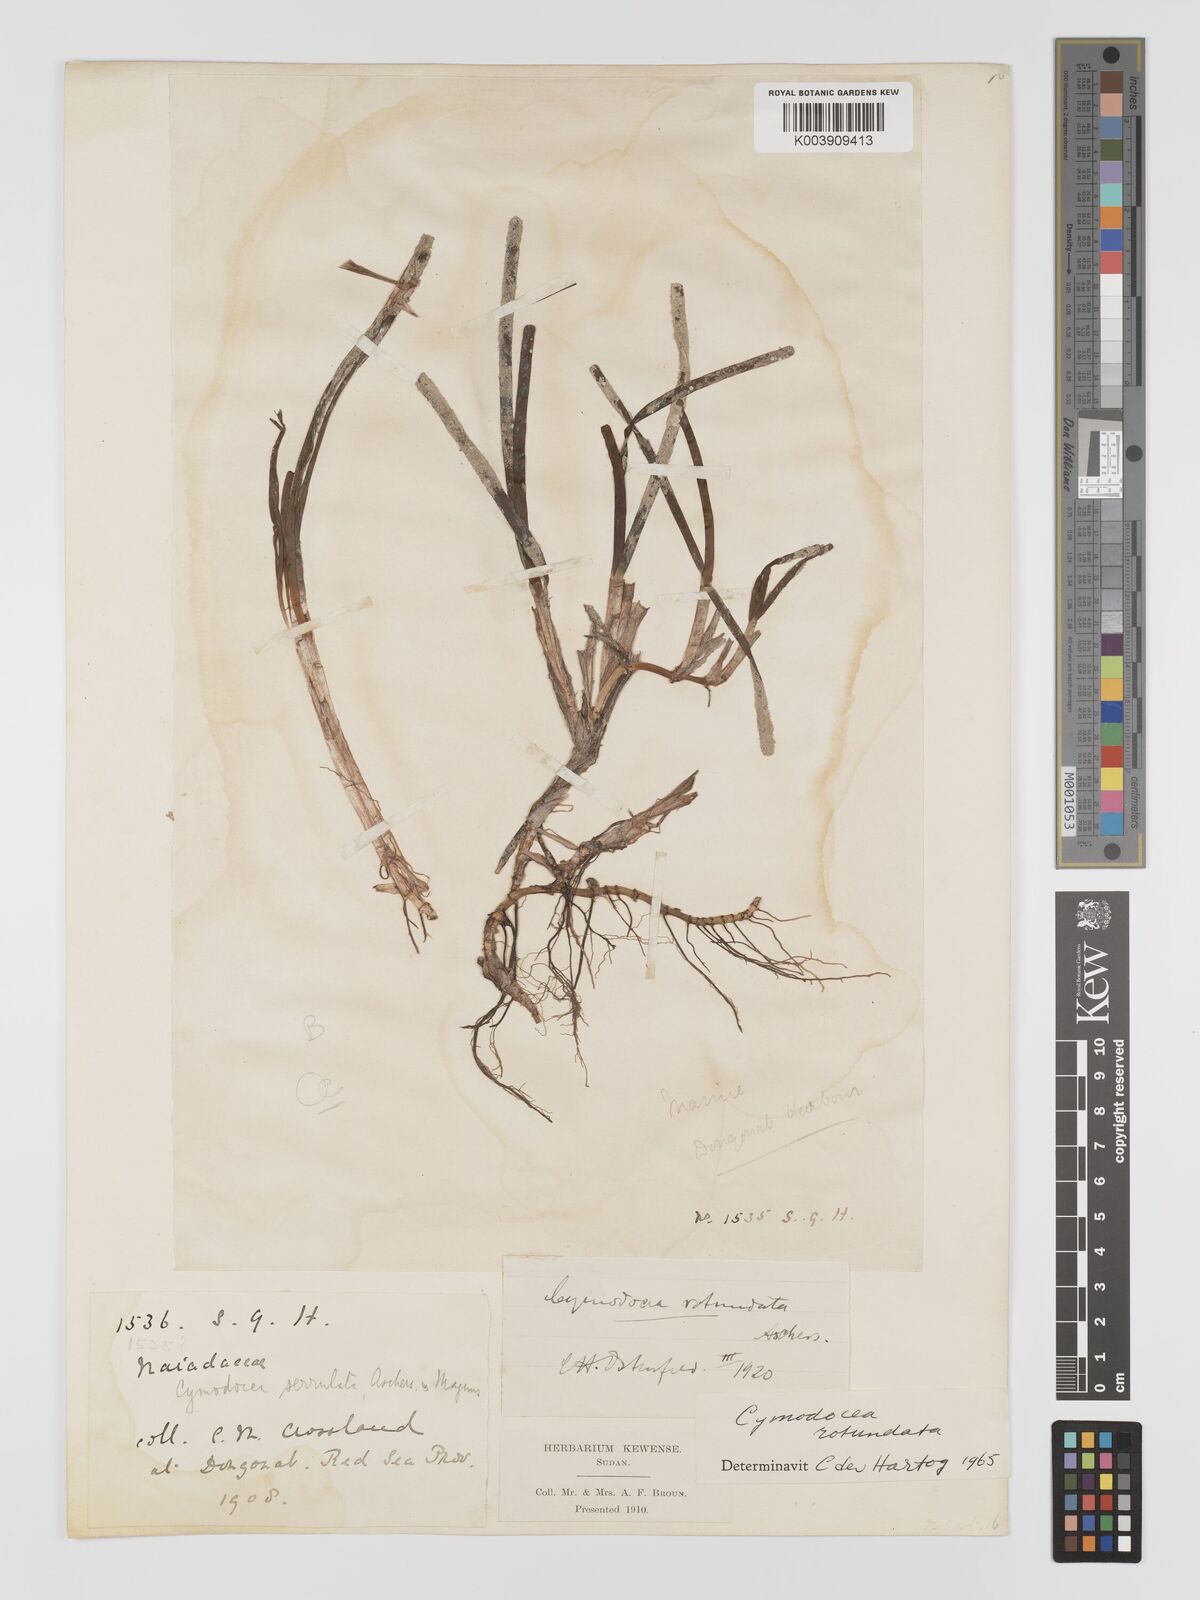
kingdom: Plantae
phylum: Tracheophyta
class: Liliopsida
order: Alismatales
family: Cymodoceaceae
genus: Cymodocea
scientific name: Cymodocea rotundata
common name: Species code: cr
